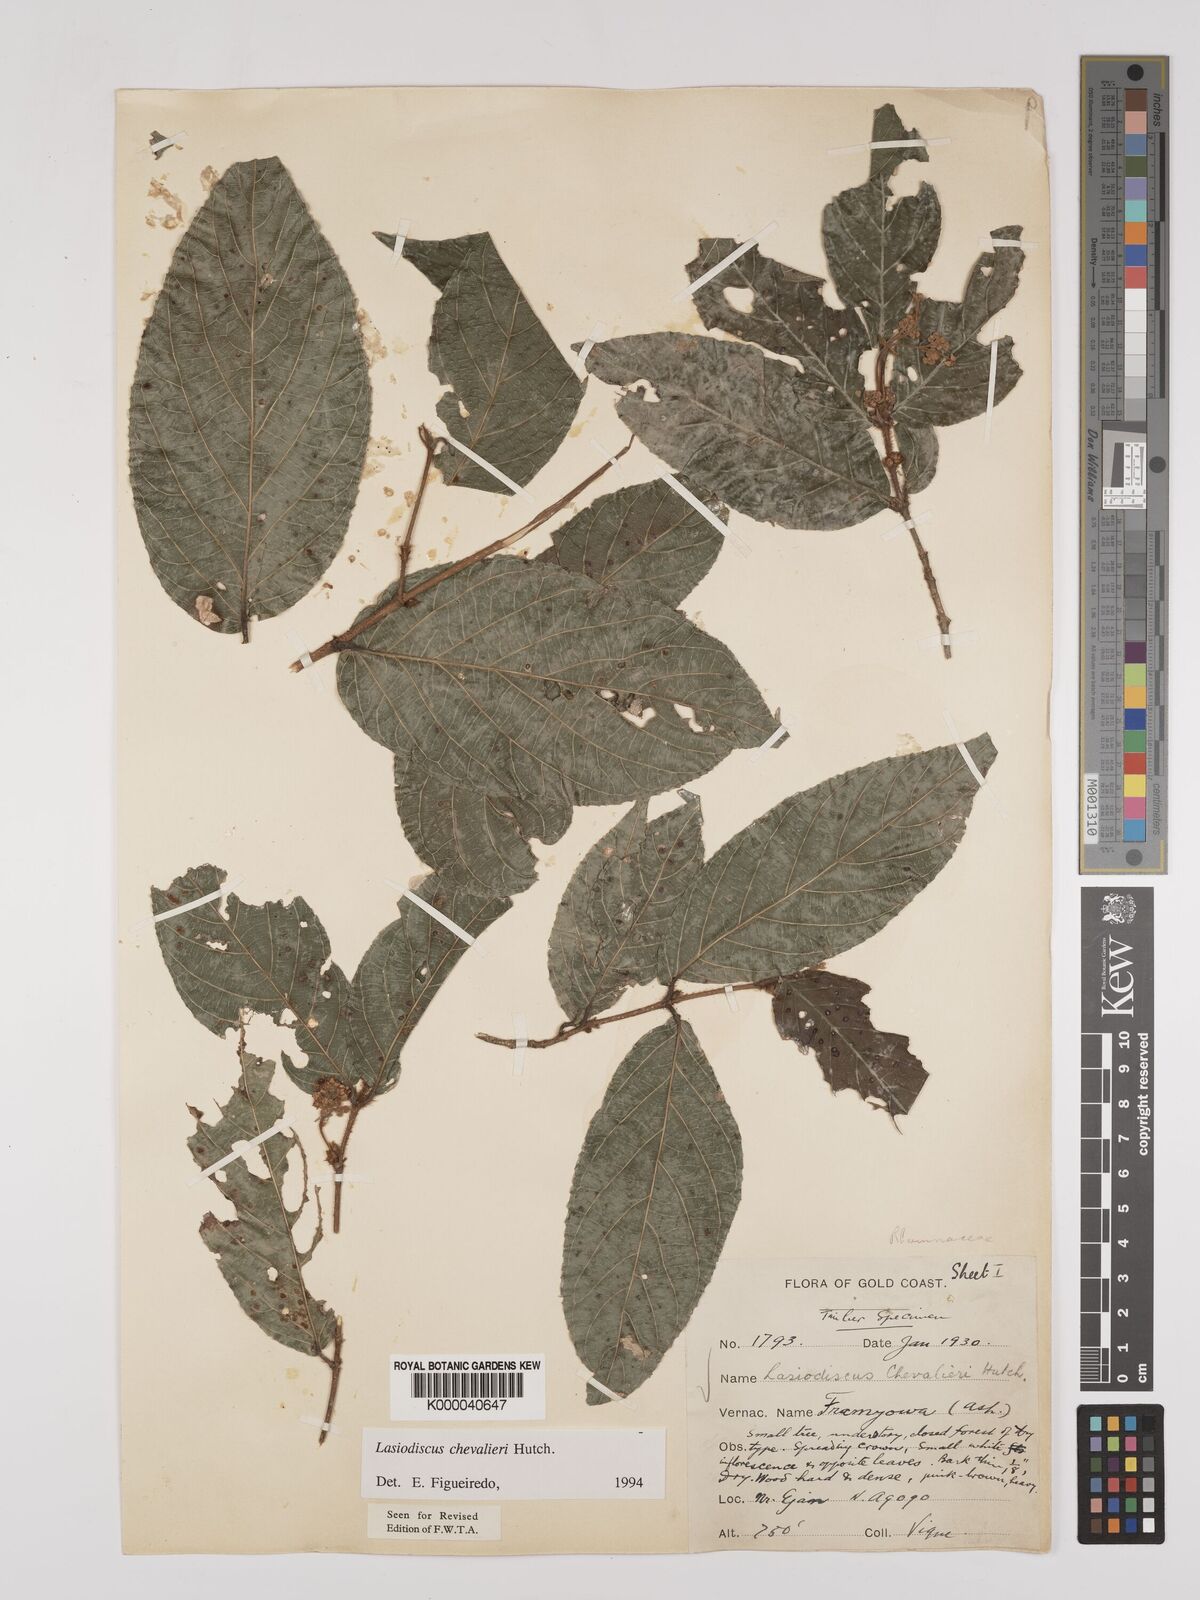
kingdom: Plantae
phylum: Tracheophyta
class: Magnoliopsida
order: Rosales
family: Rhamnaceae
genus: Lasiodiscus
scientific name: Lasiodiscus chevalieri
